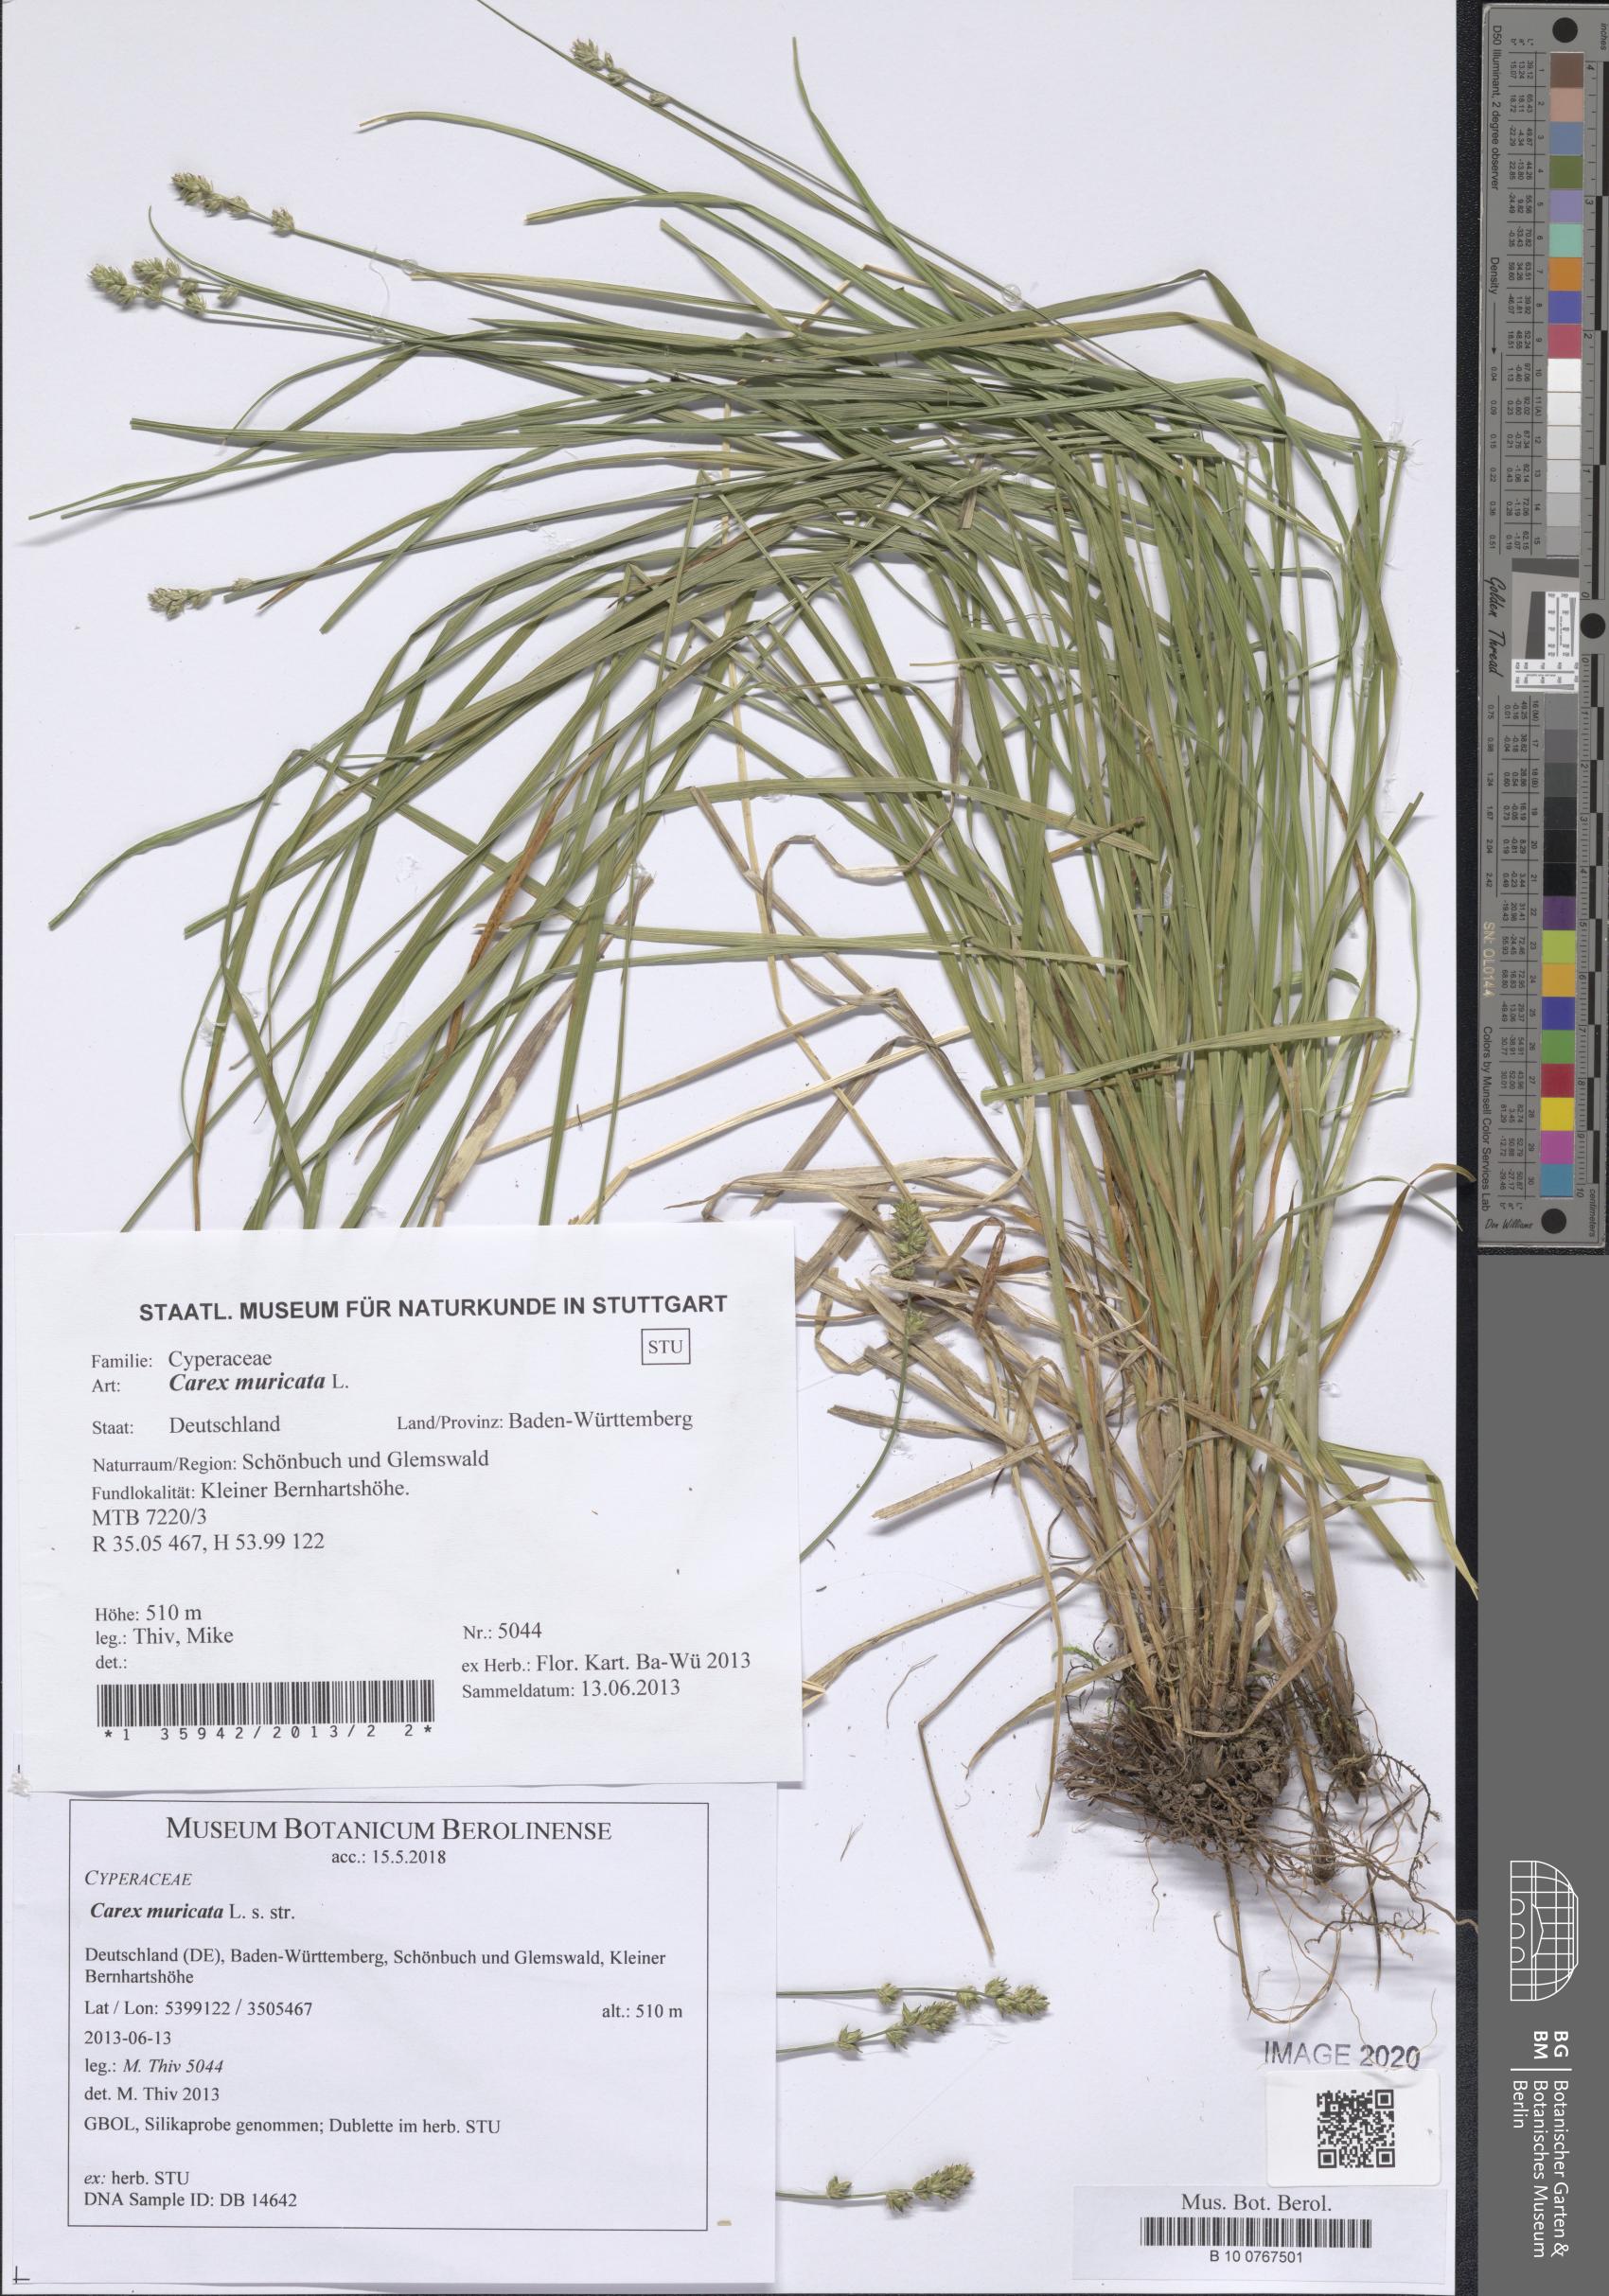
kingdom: Plantae
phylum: Tracheophyta
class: Liliopsida
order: Poales
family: Cyperaceae
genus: Carex
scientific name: Carex muricata
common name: Rough sedge
